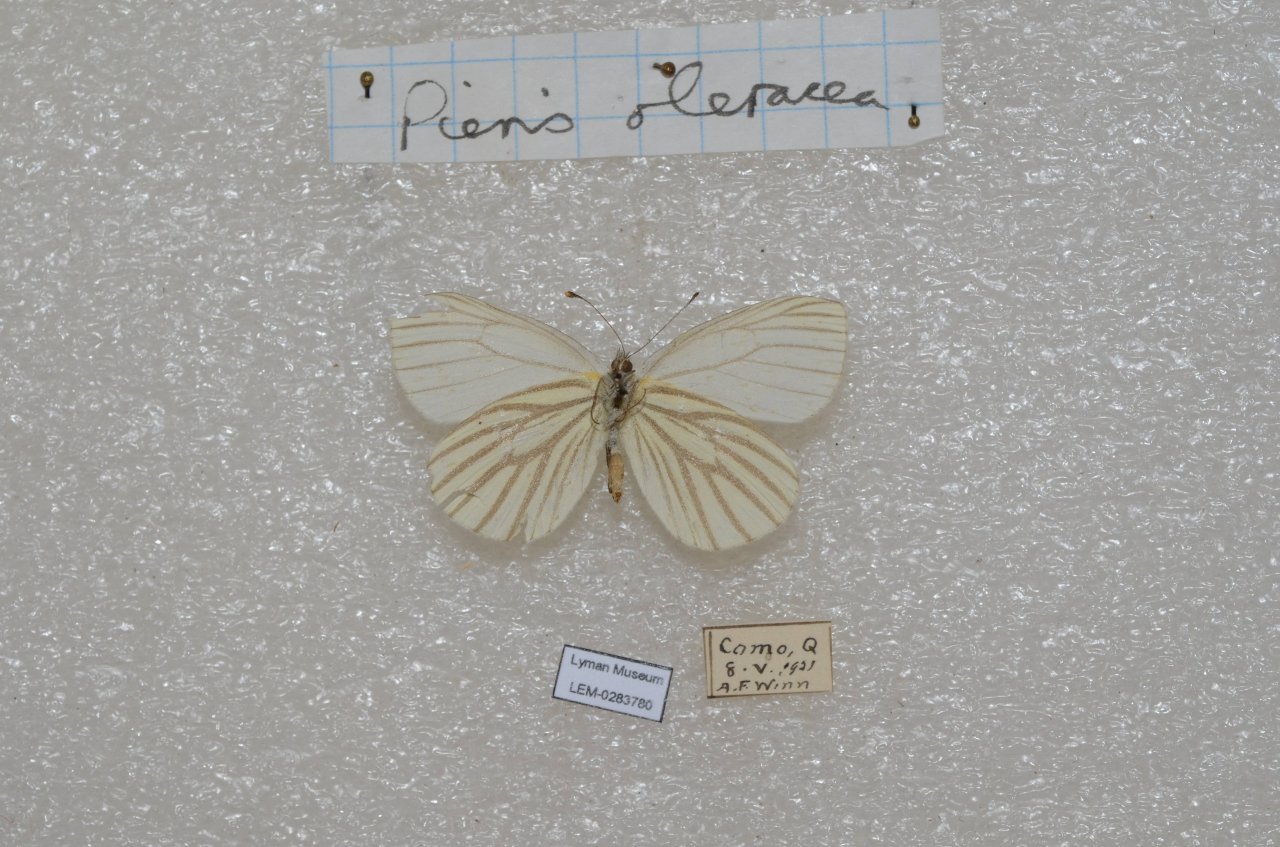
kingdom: Animalia
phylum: Arthropoda
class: Insecta
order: Lepidoptera
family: Pieridae
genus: Pieris
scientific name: Pieris oleracea
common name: Mustard White
